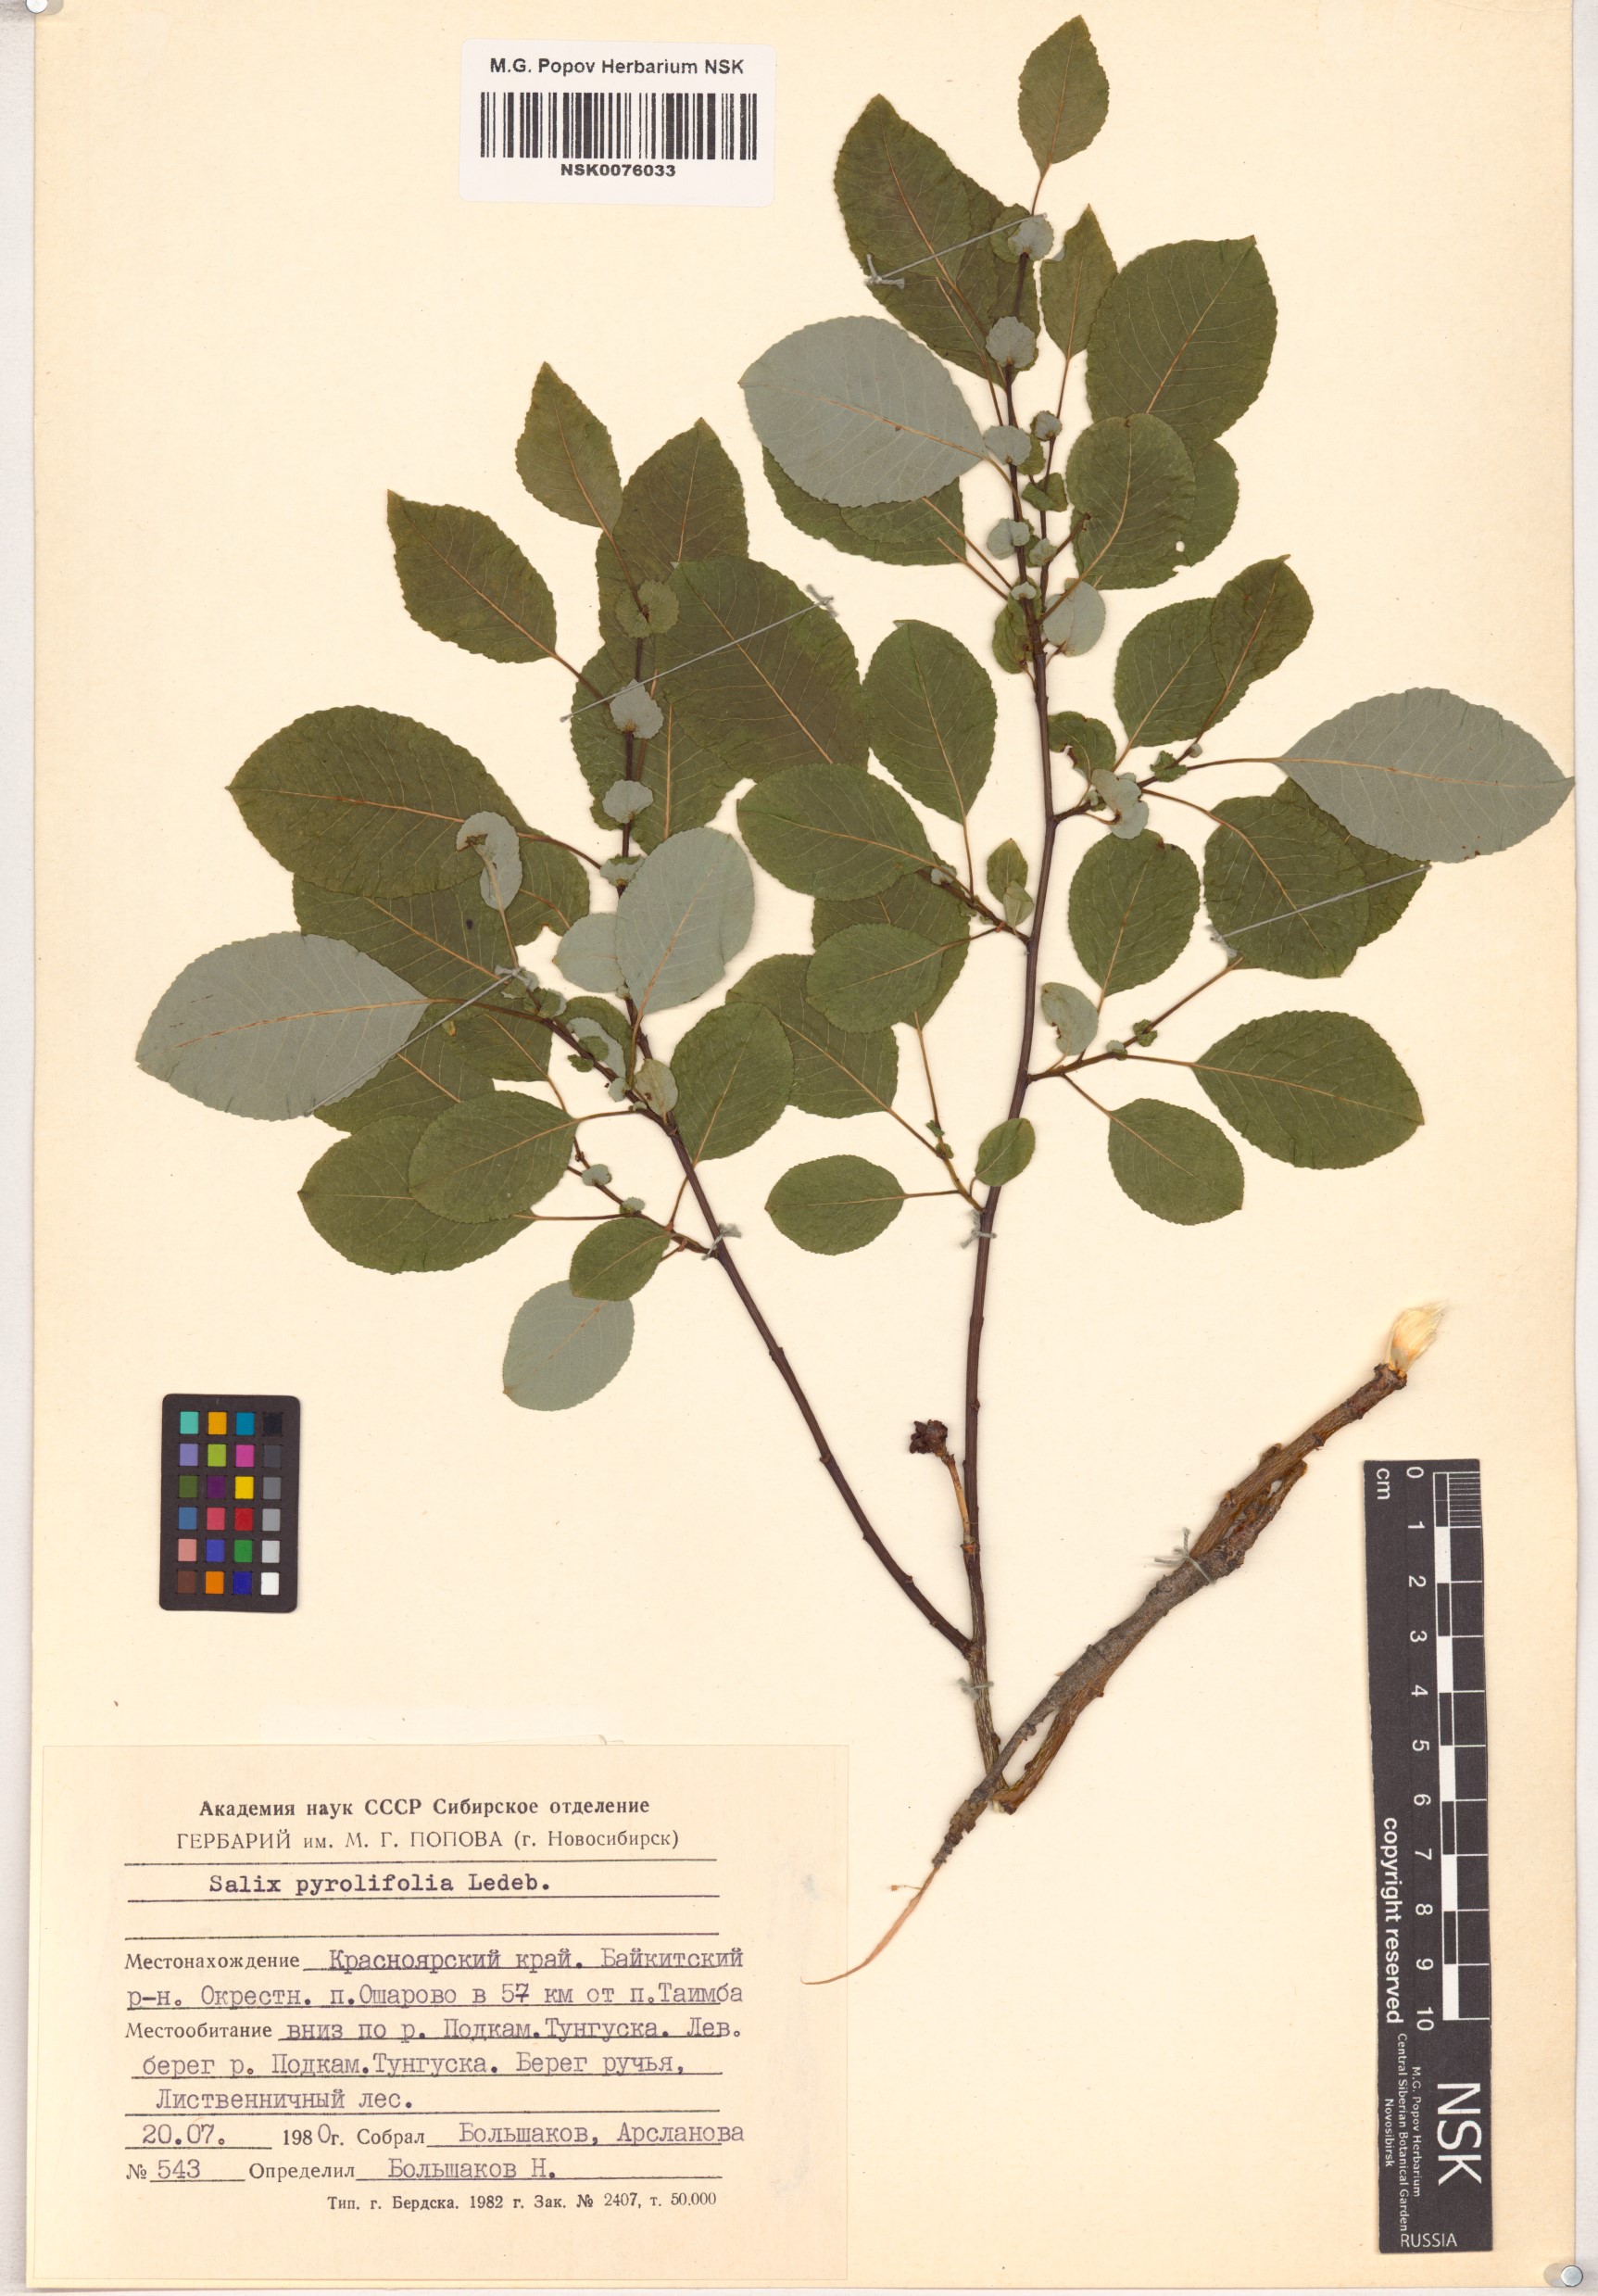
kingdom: Plantae
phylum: Tracheophyta
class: Magnoliopsida
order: Malpighiales
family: Salicaceae
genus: Salix
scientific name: Salix pyrolifolia
